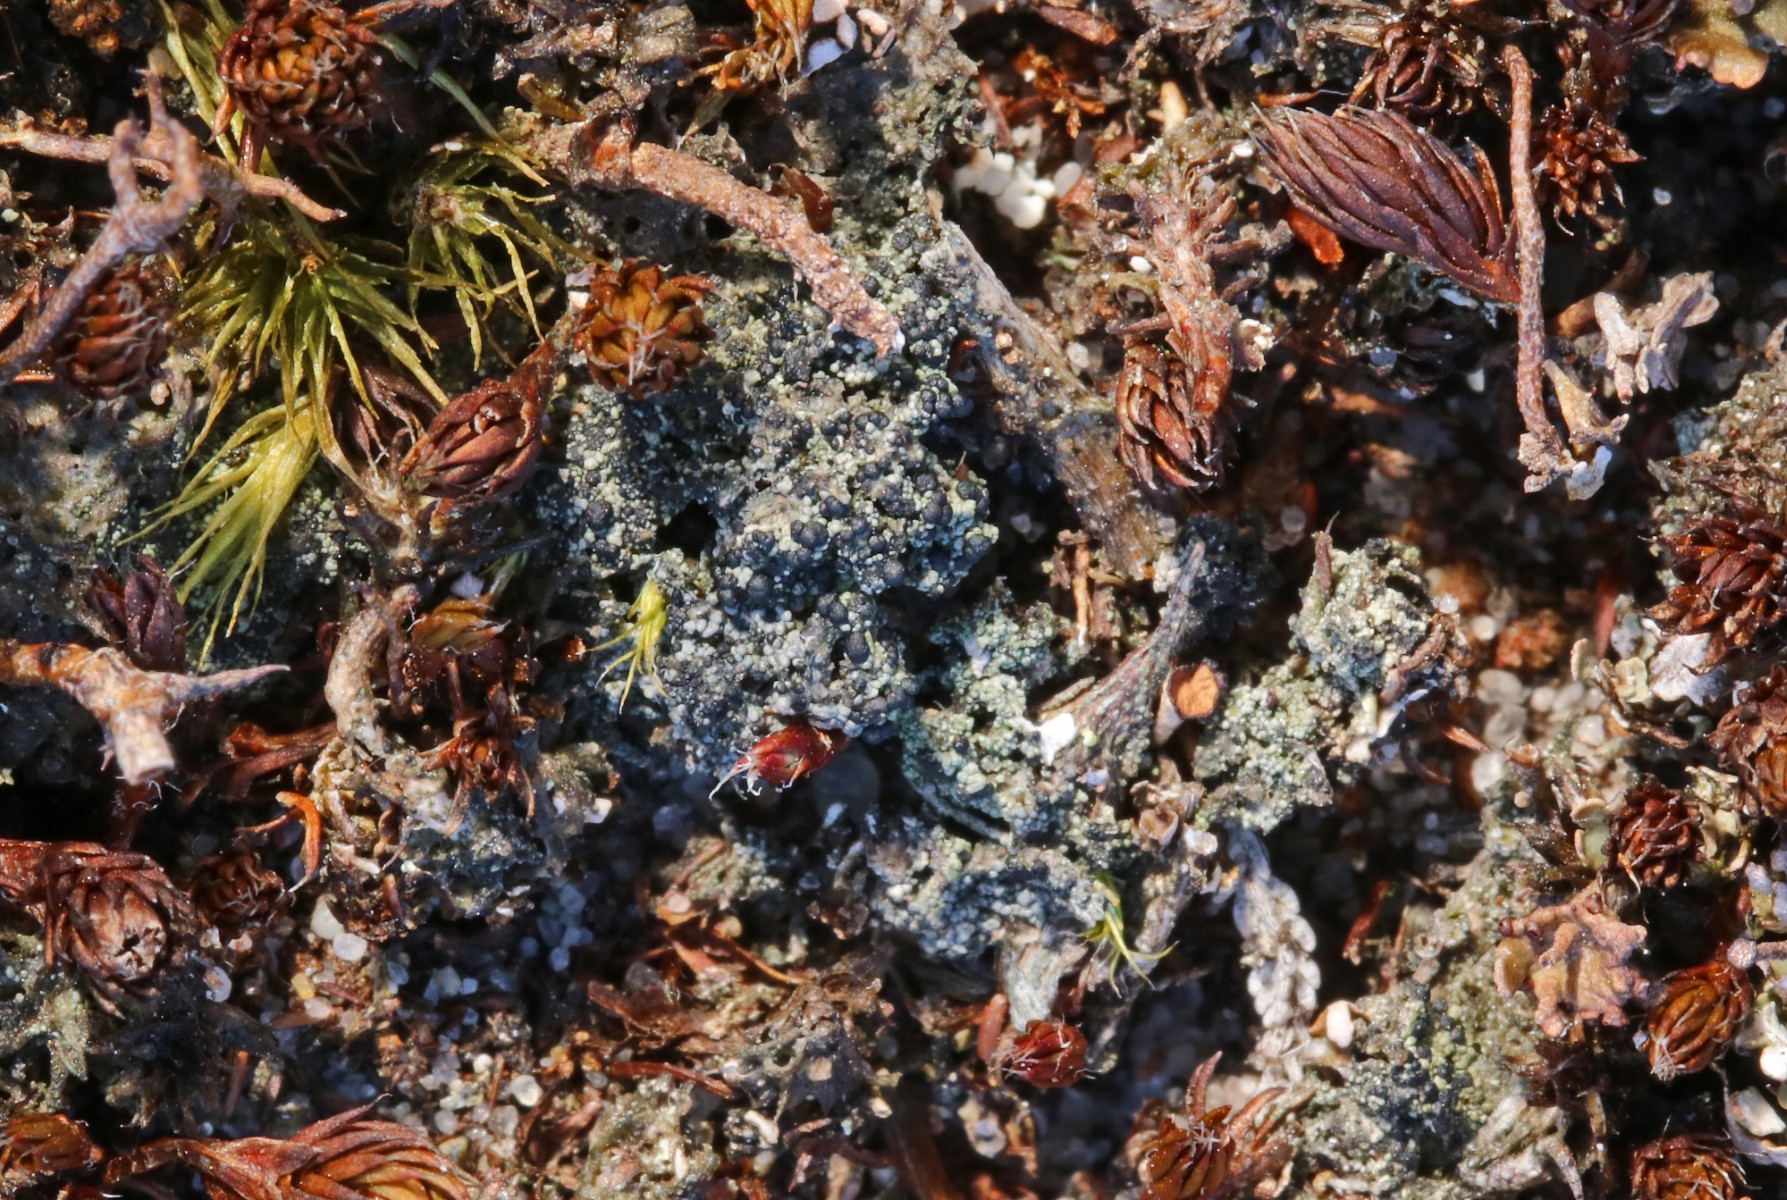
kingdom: Fungi
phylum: Ascomycota
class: Lecanoromycetes
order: Lecanorales
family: Byssolomataceae
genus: Micarea
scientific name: Micarea lignaria
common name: tørve-knaplav
